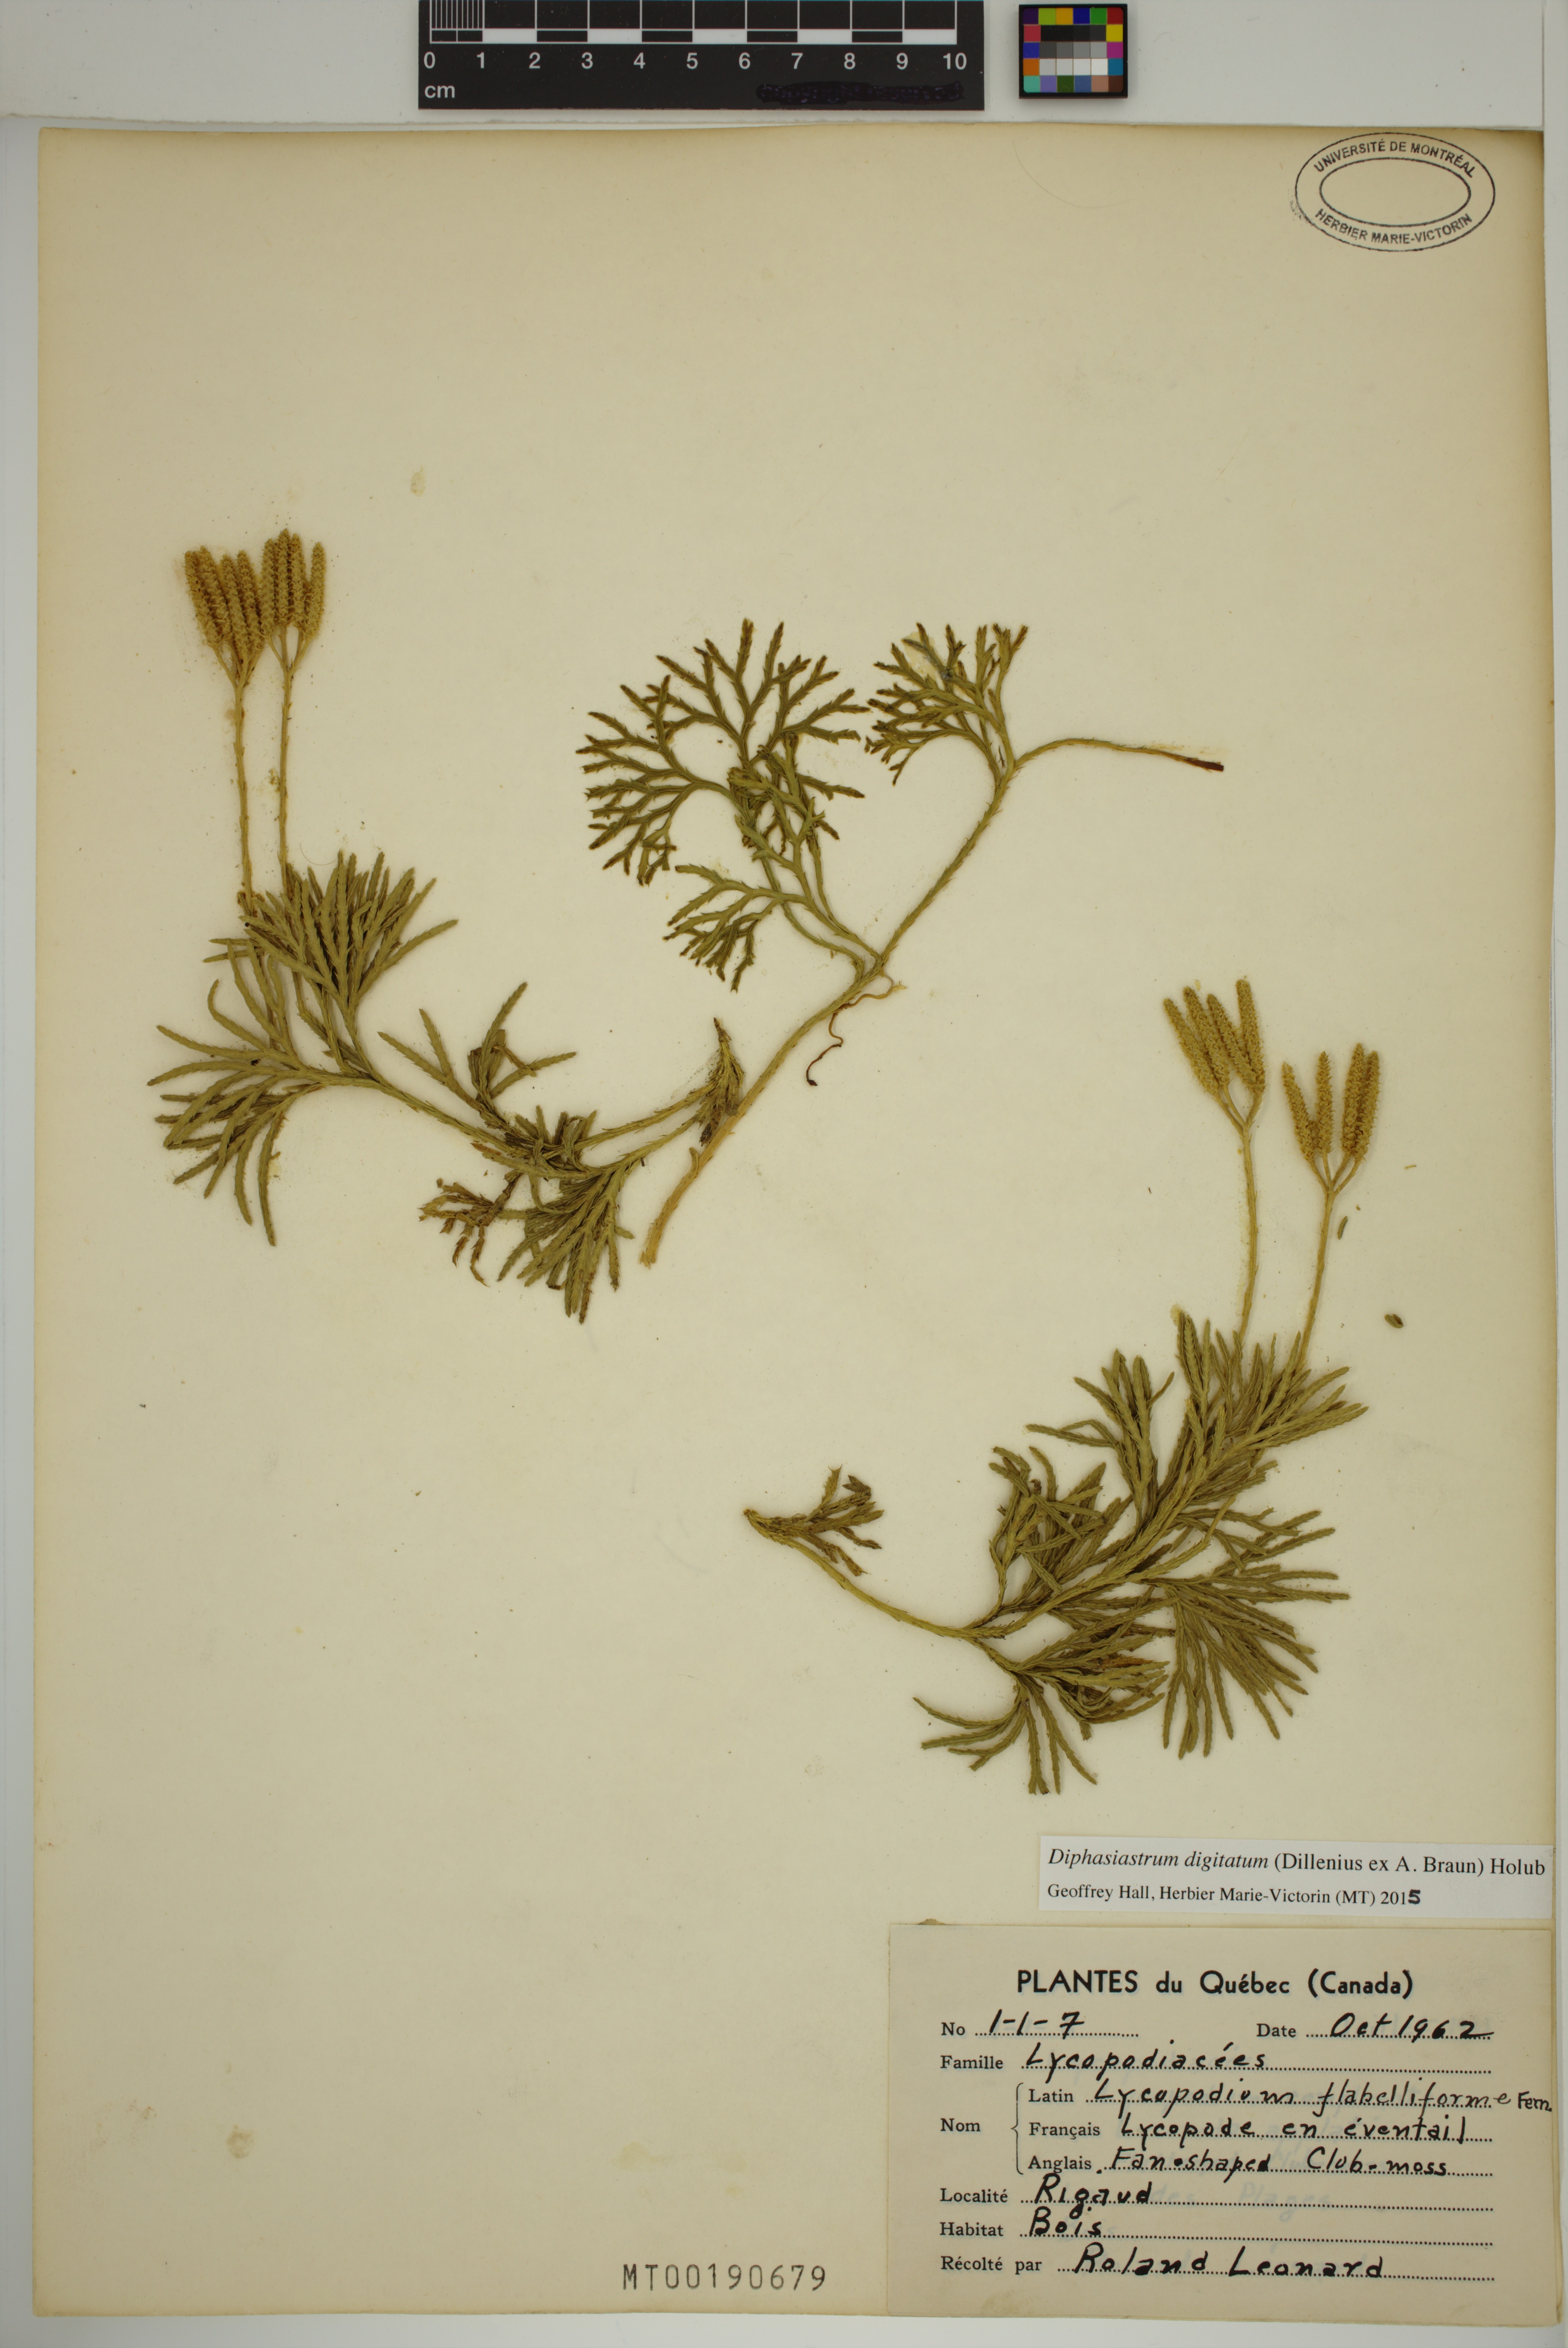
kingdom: Plantae
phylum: Tracheophyta
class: Lycopodiopsida
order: Lycopodiales
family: Lycopodiaceae
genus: Diphasiastrum
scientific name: Diphasiastrum digitatum
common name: Southern running-pine
